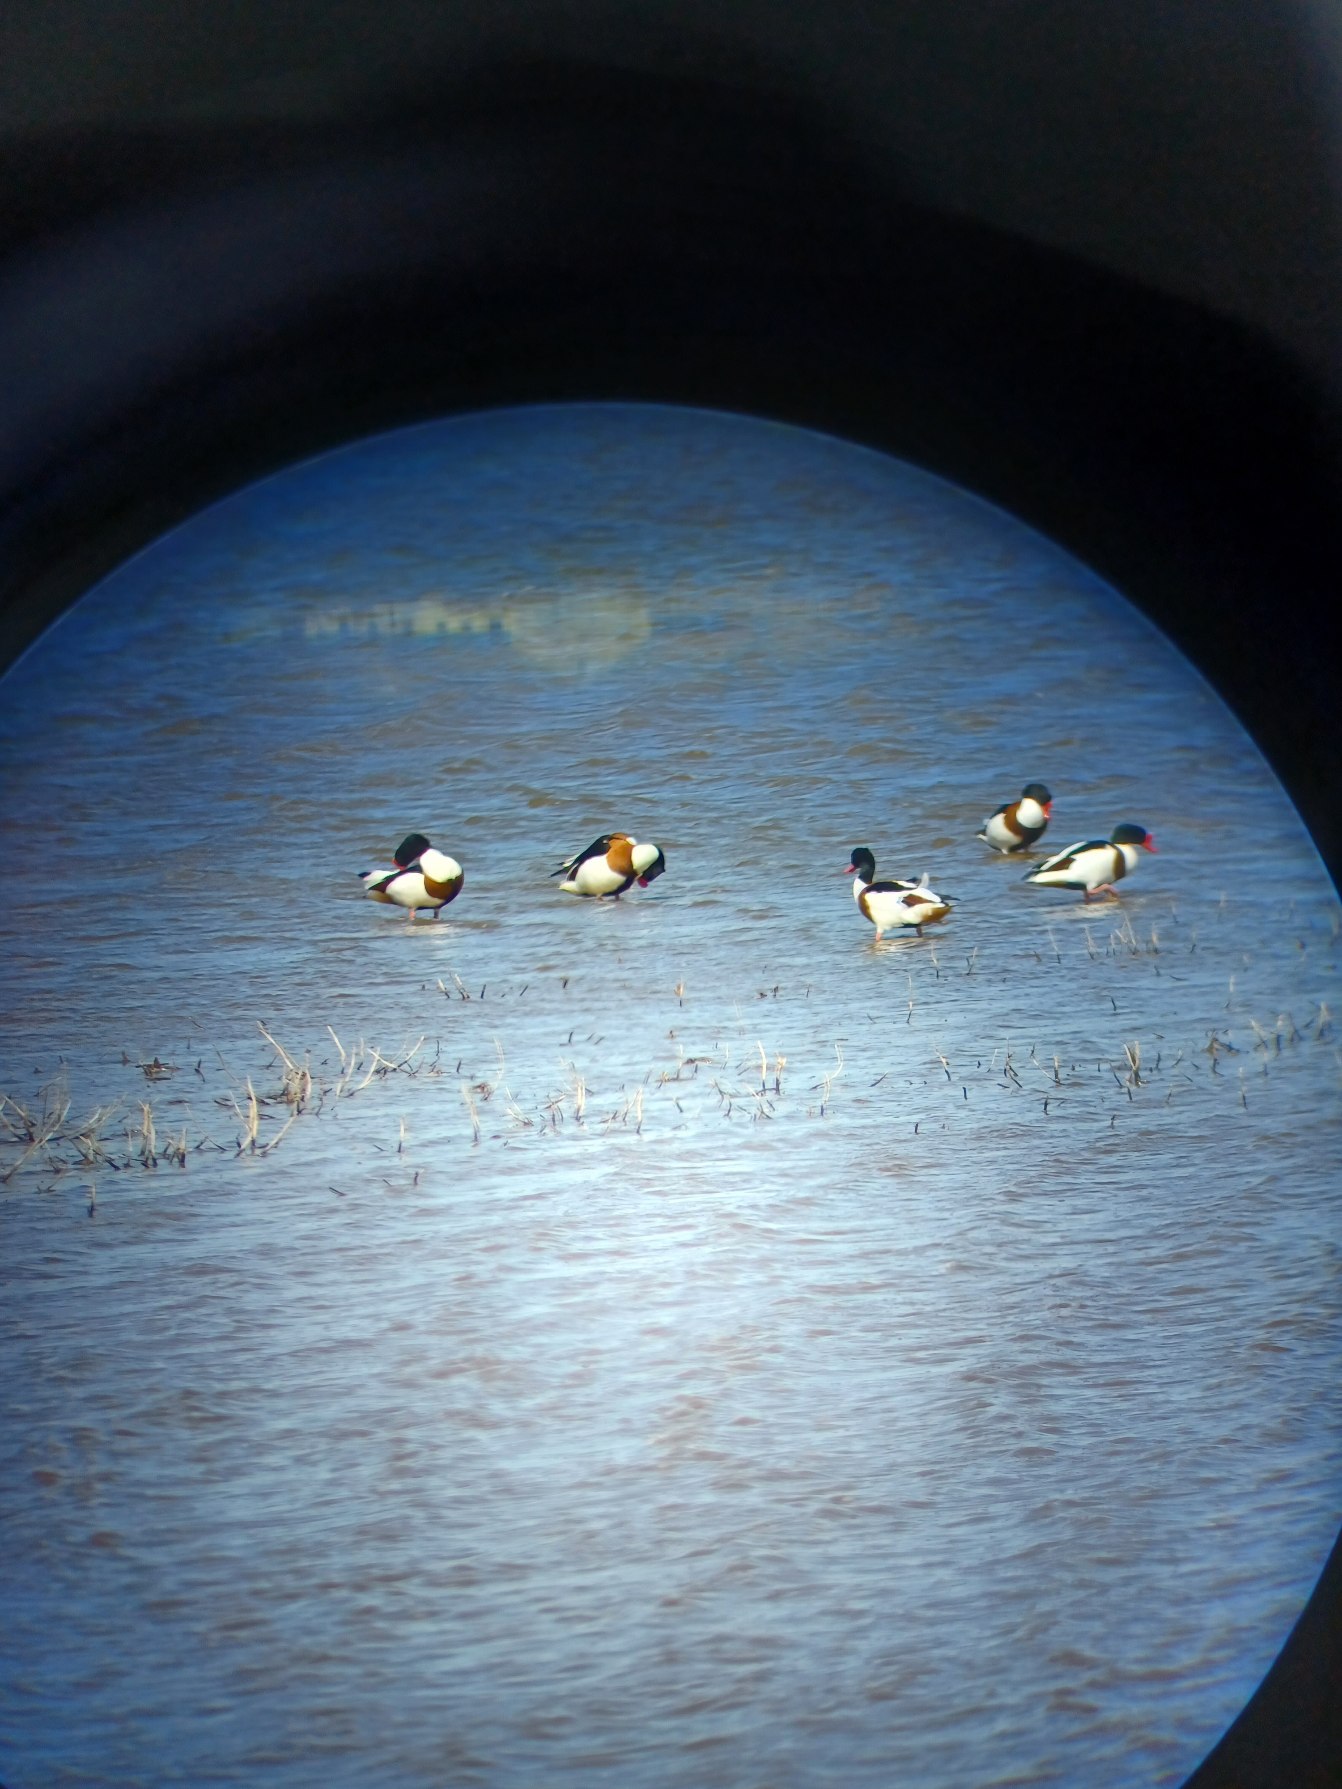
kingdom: Animalia
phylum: Chordata
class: Aves
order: Anseriformes
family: Anatidae
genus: Tadorna
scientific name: Tadorna tadorna
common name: Gravand
